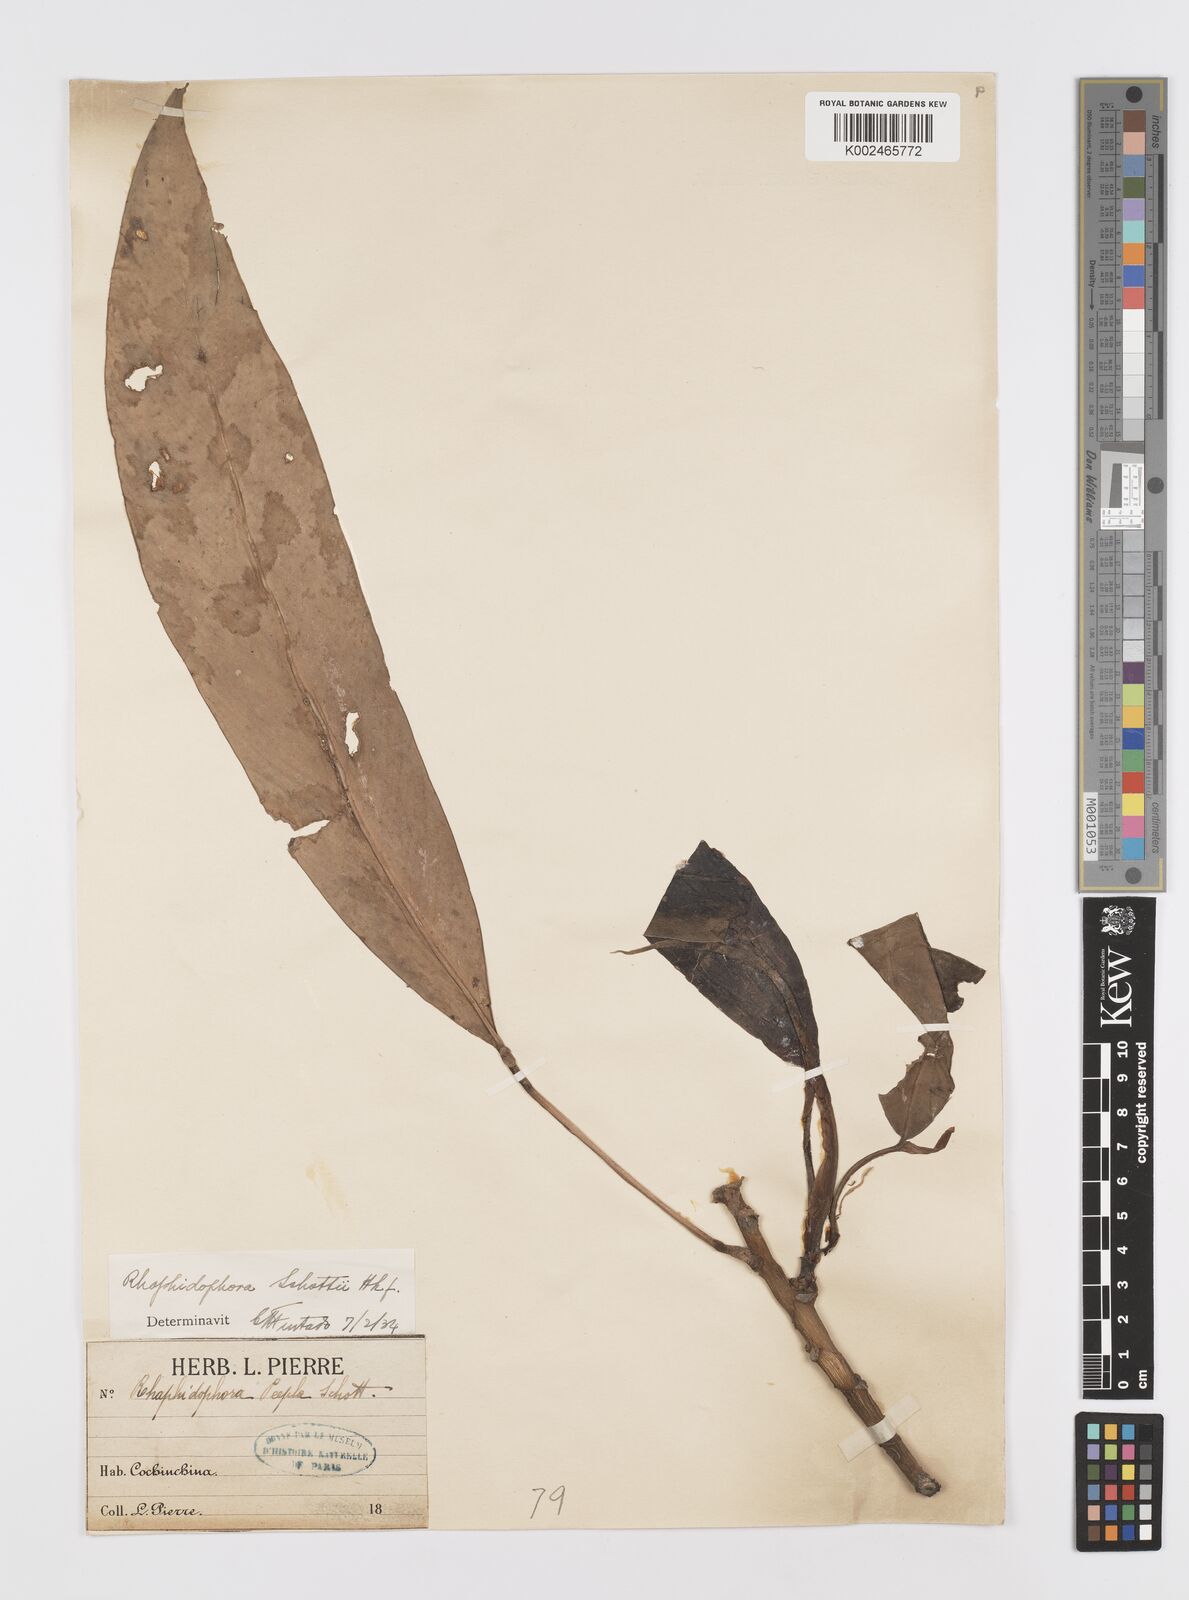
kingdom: Plantae
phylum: Tracheophyta
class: Liliopsida
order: Alismatales
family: Araceae
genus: Rhaphidophora
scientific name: Rhaphidophora
